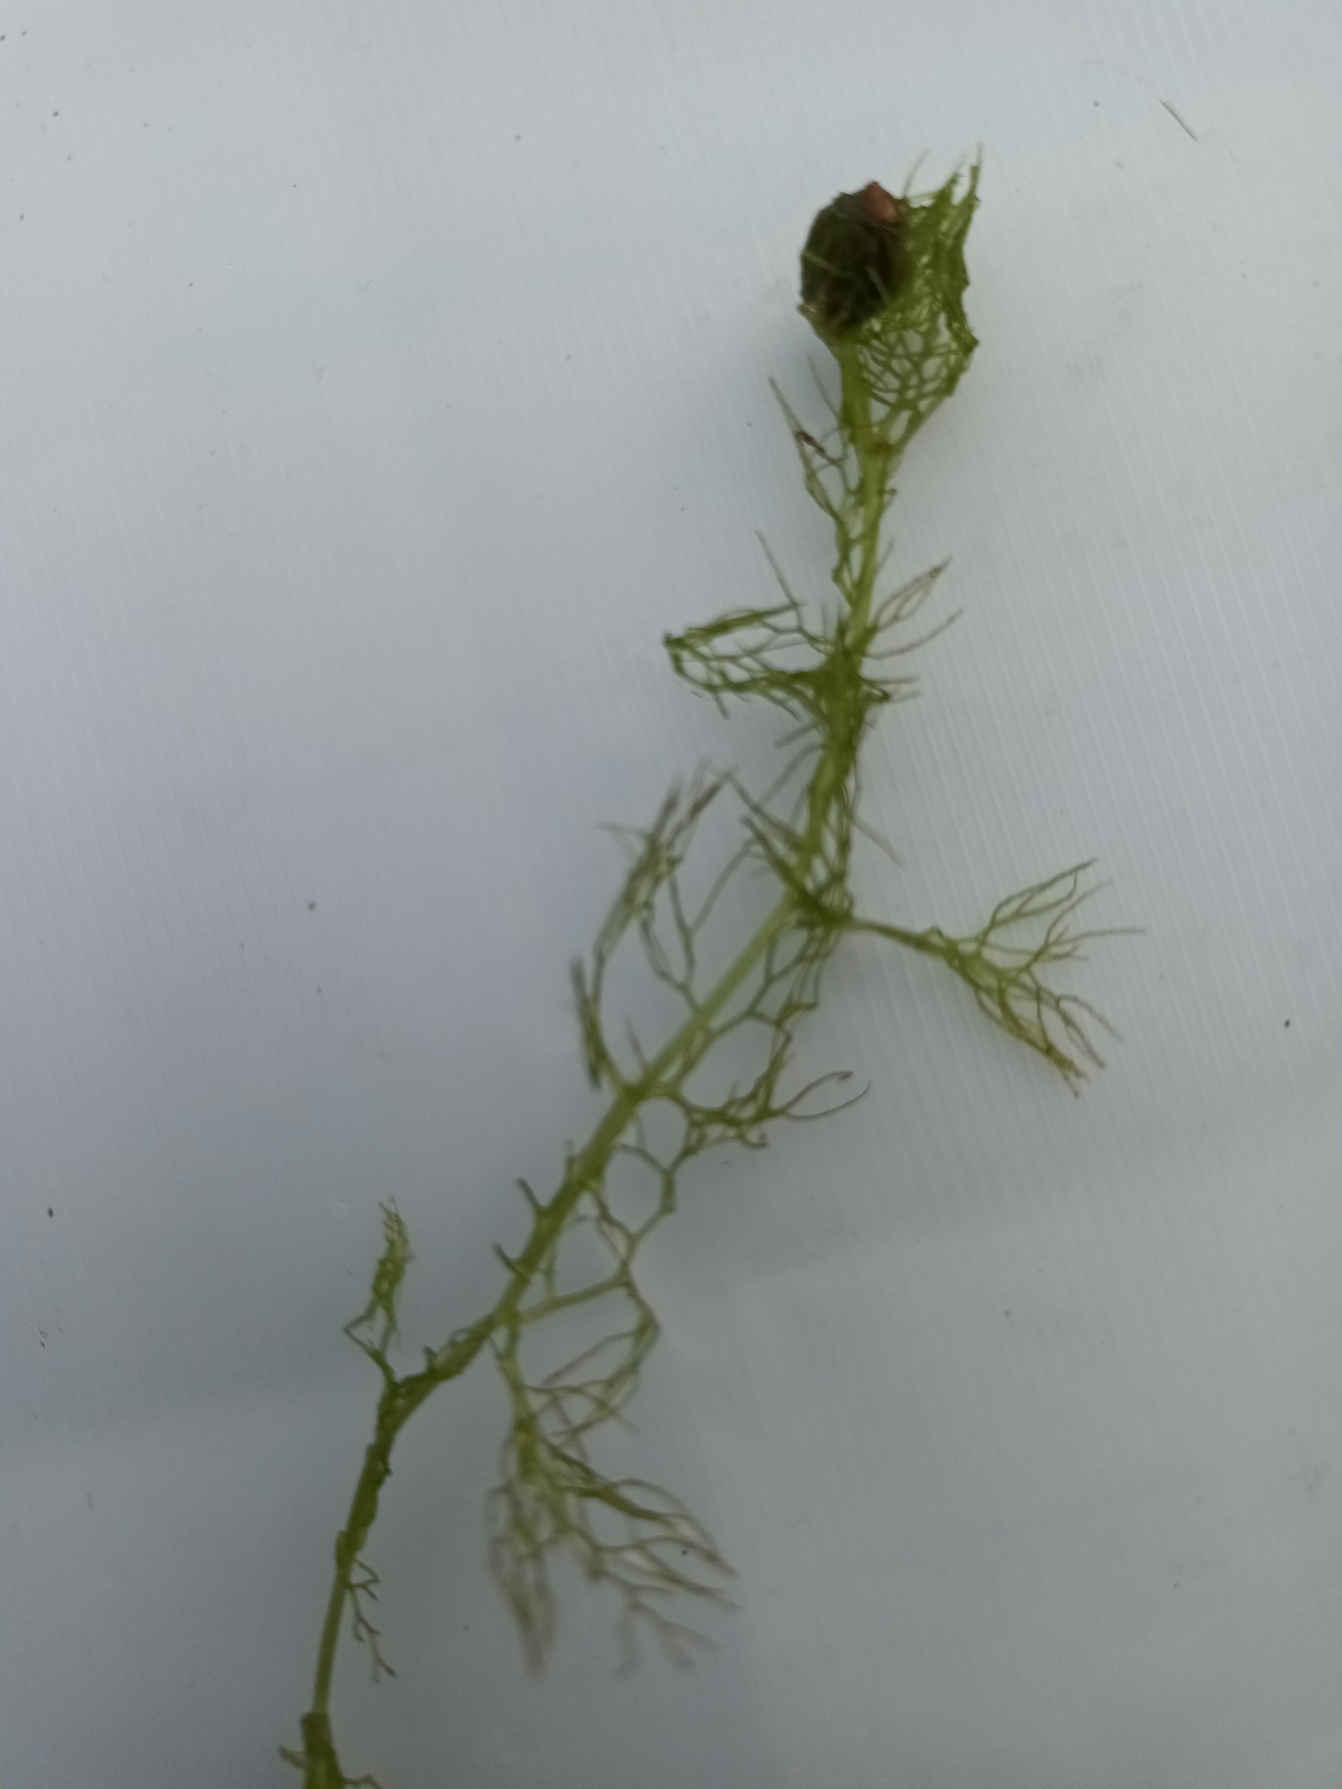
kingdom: Plantae
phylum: Tracheophyta
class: Magnoliopsida
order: Ranunculales
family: Ranunculaceae
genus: Ranunculus
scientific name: Ranunculus circinatus
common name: Kredsbladet vandranunkel
